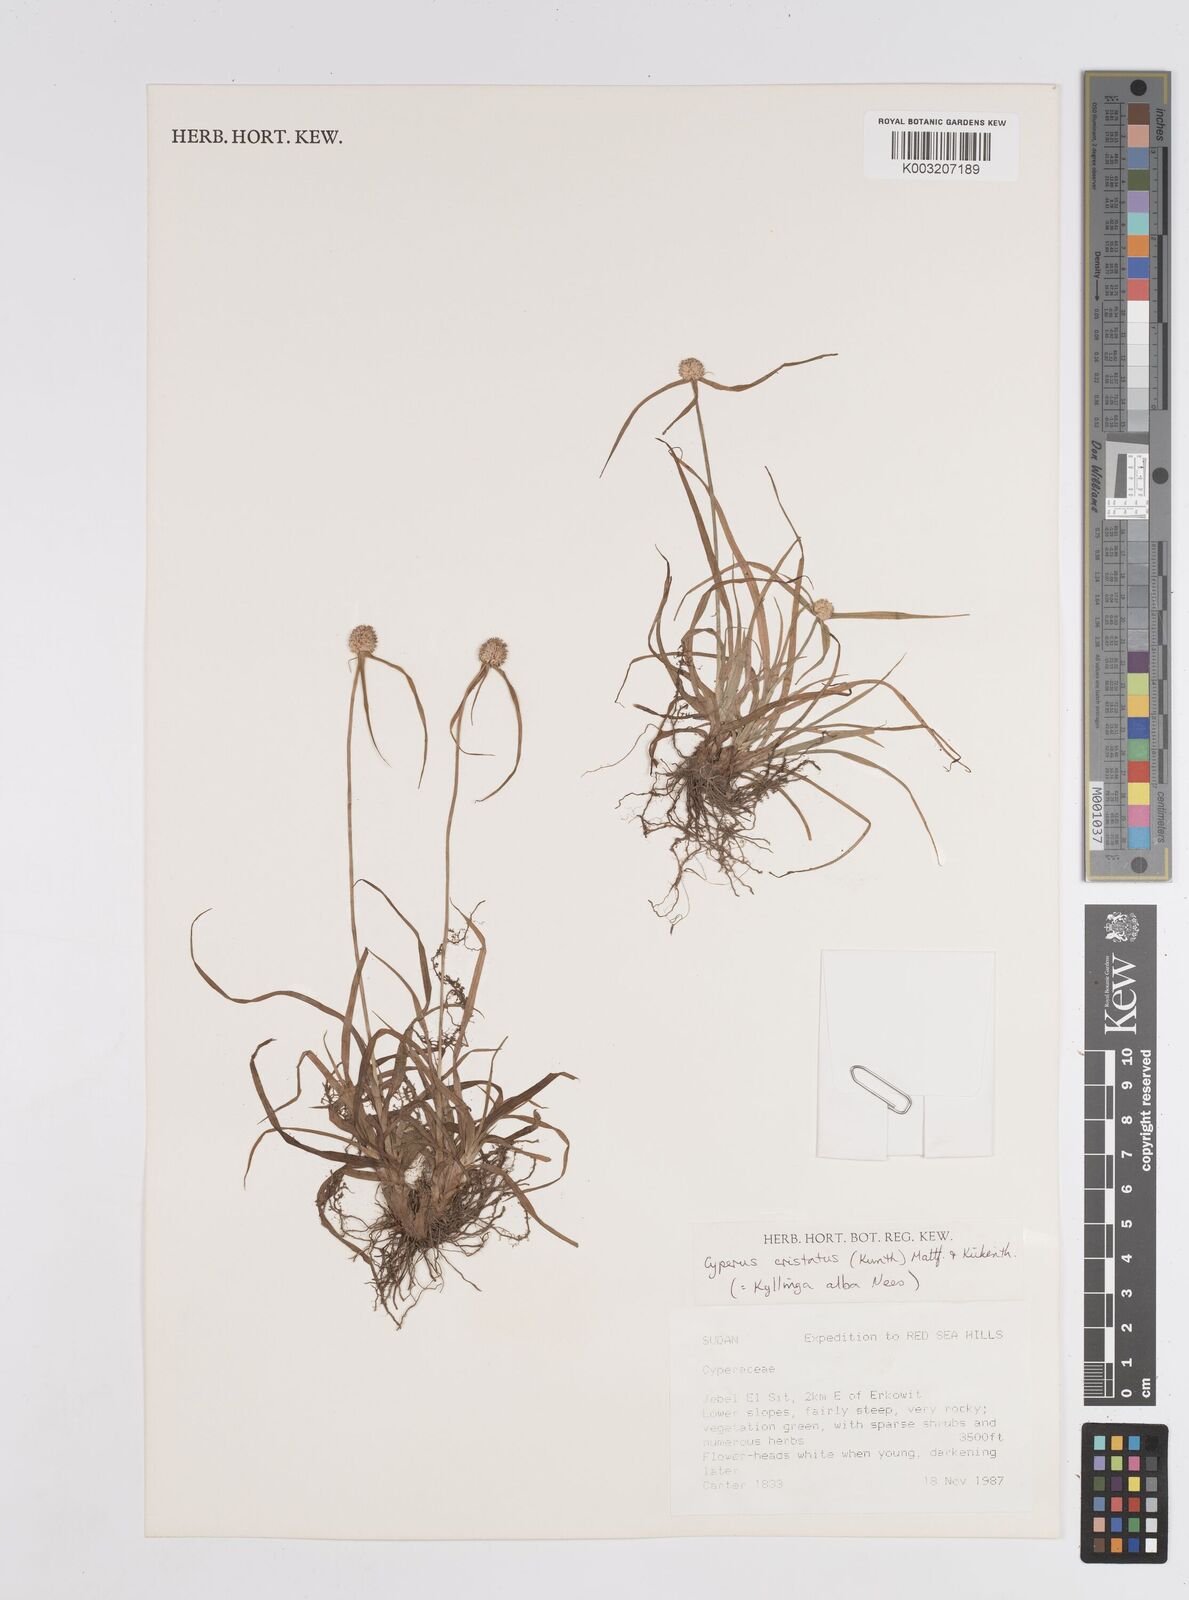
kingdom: Plantae
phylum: Tracheophyta
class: Liliopsida
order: Poales
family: Cyperaceae
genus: Cyperus
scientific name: Cyperus
